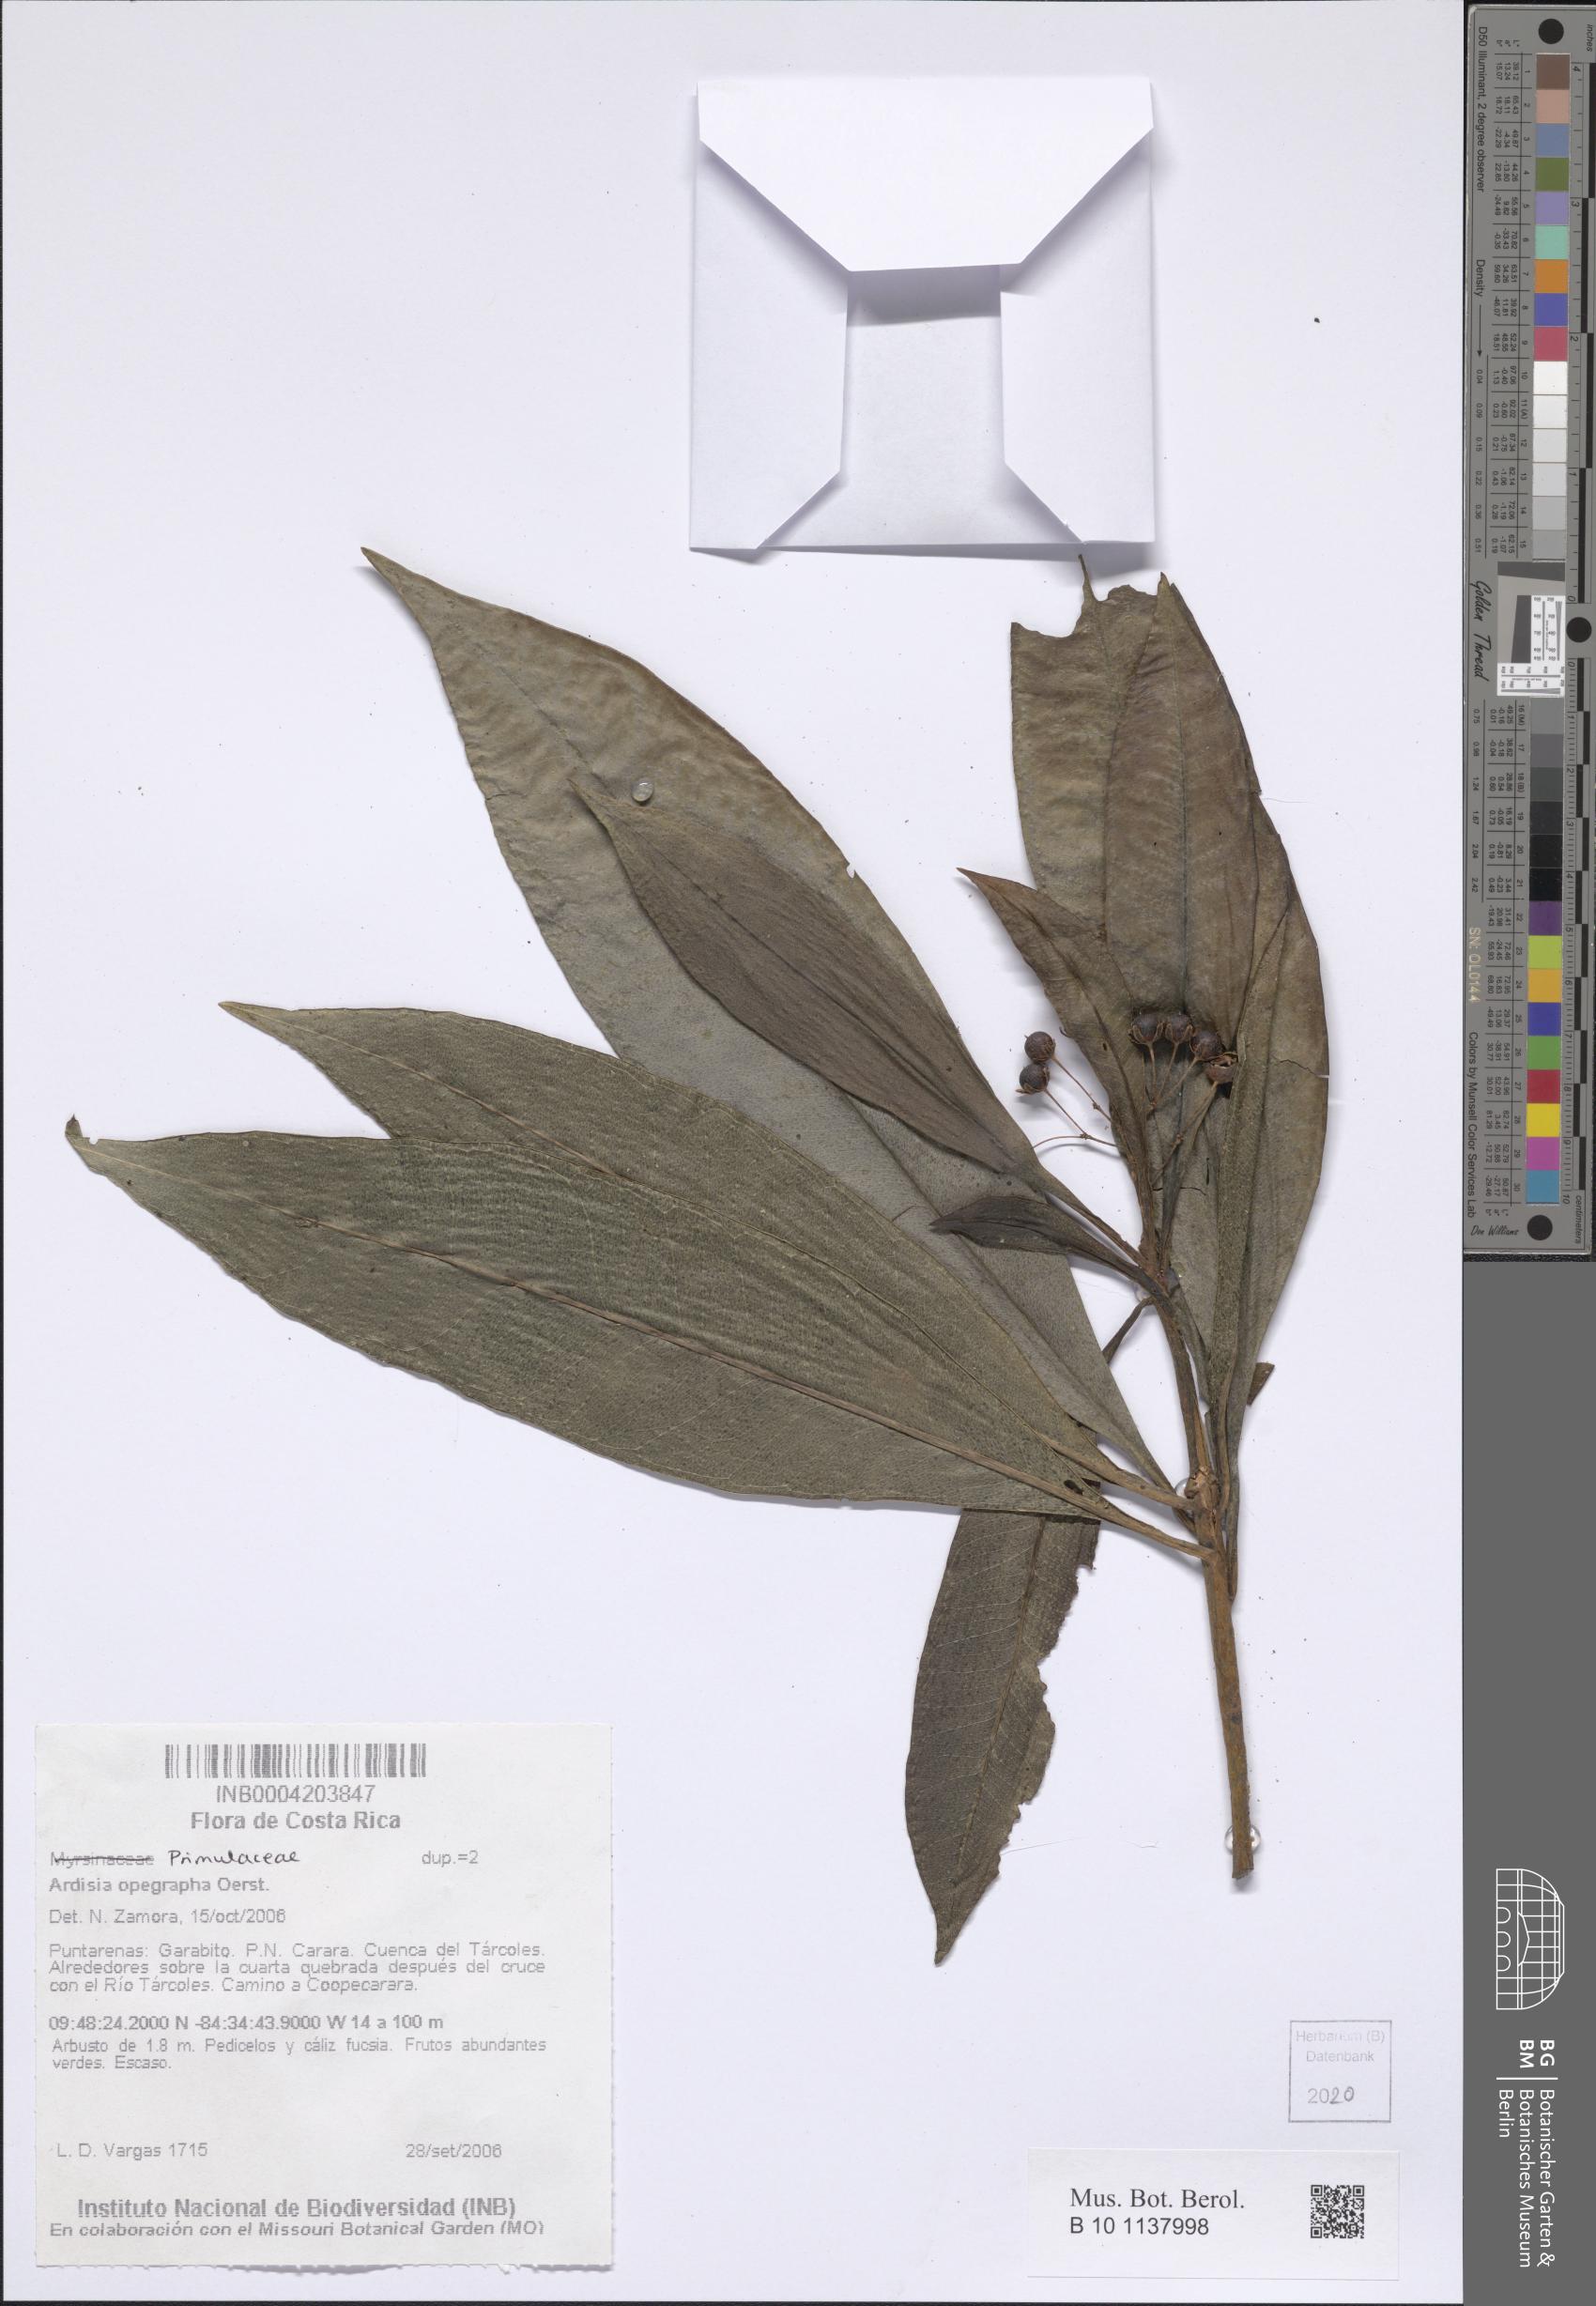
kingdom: Plantae
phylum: Tracheophyta
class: Magnoliopsida
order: Ericales
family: Primulaceae
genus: Ardisia
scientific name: Ardisia opegrapha
